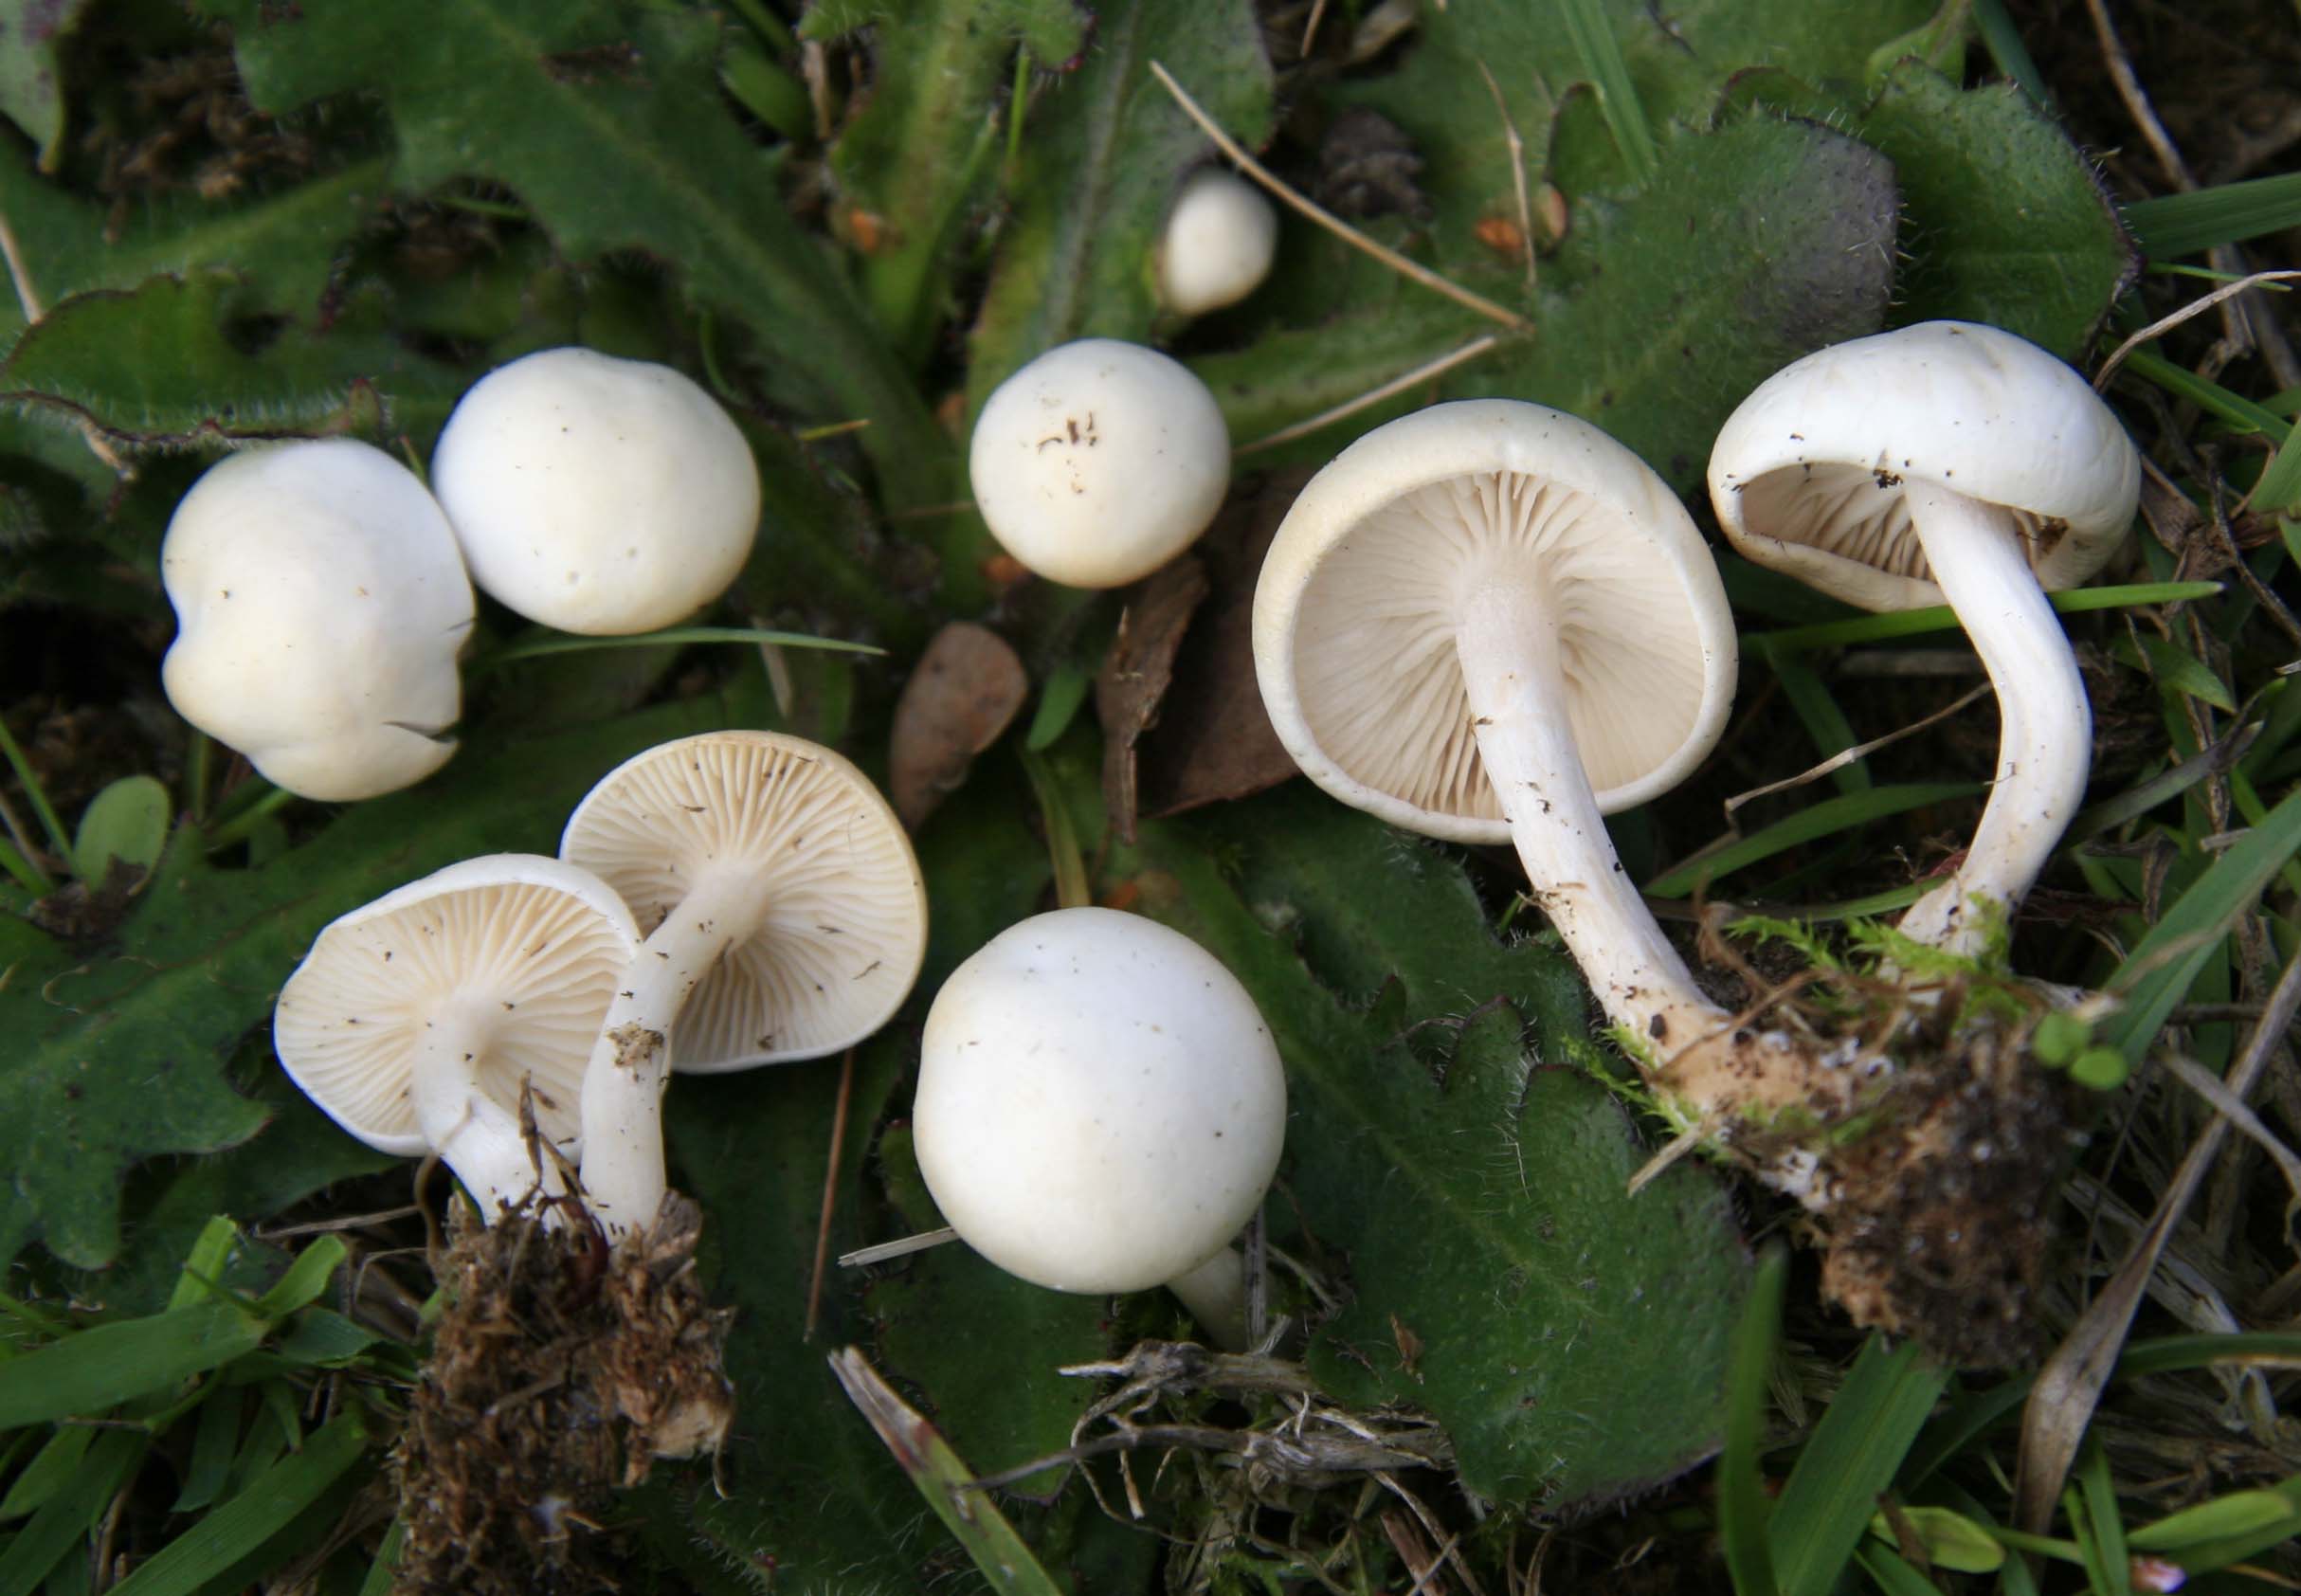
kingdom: Fungi
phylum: Basidiomycota
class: Agaricomycetes
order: Agaricales
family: Tricholomataceae
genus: Clitocybe
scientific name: Clitocybe agrestis
